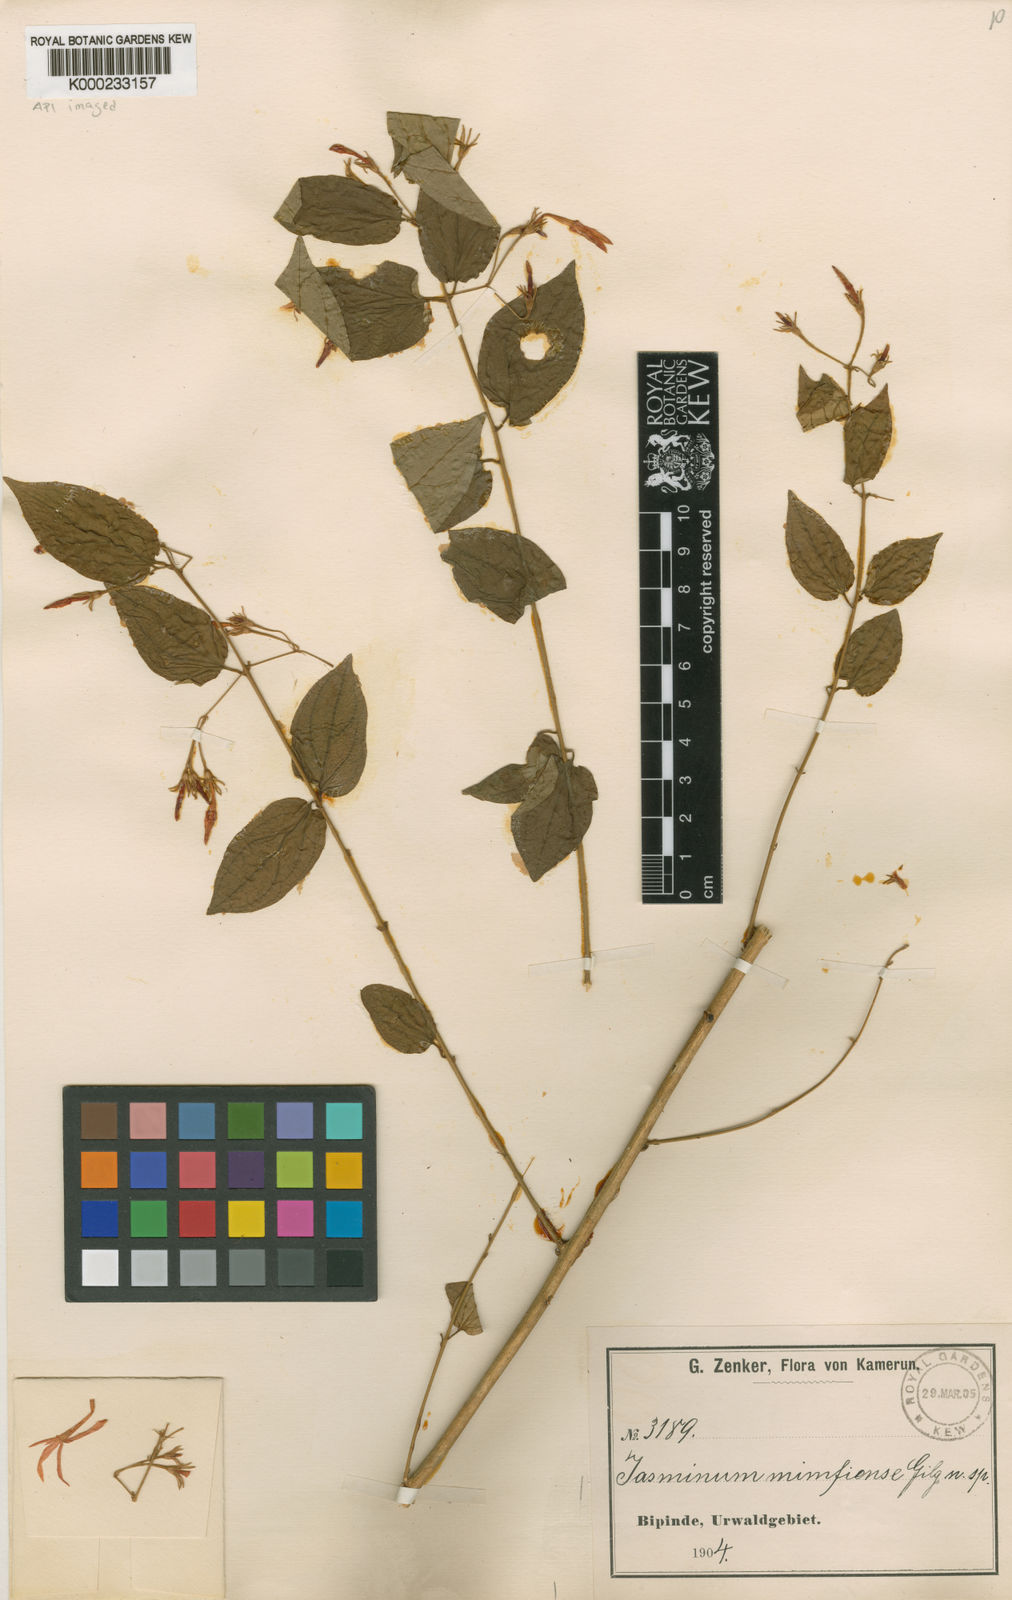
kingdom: Plantae
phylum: Tracheophyta
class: Magnoliopsida
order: Lamiales
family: Oleaceae
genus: Jasminum
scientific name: Jasminum
